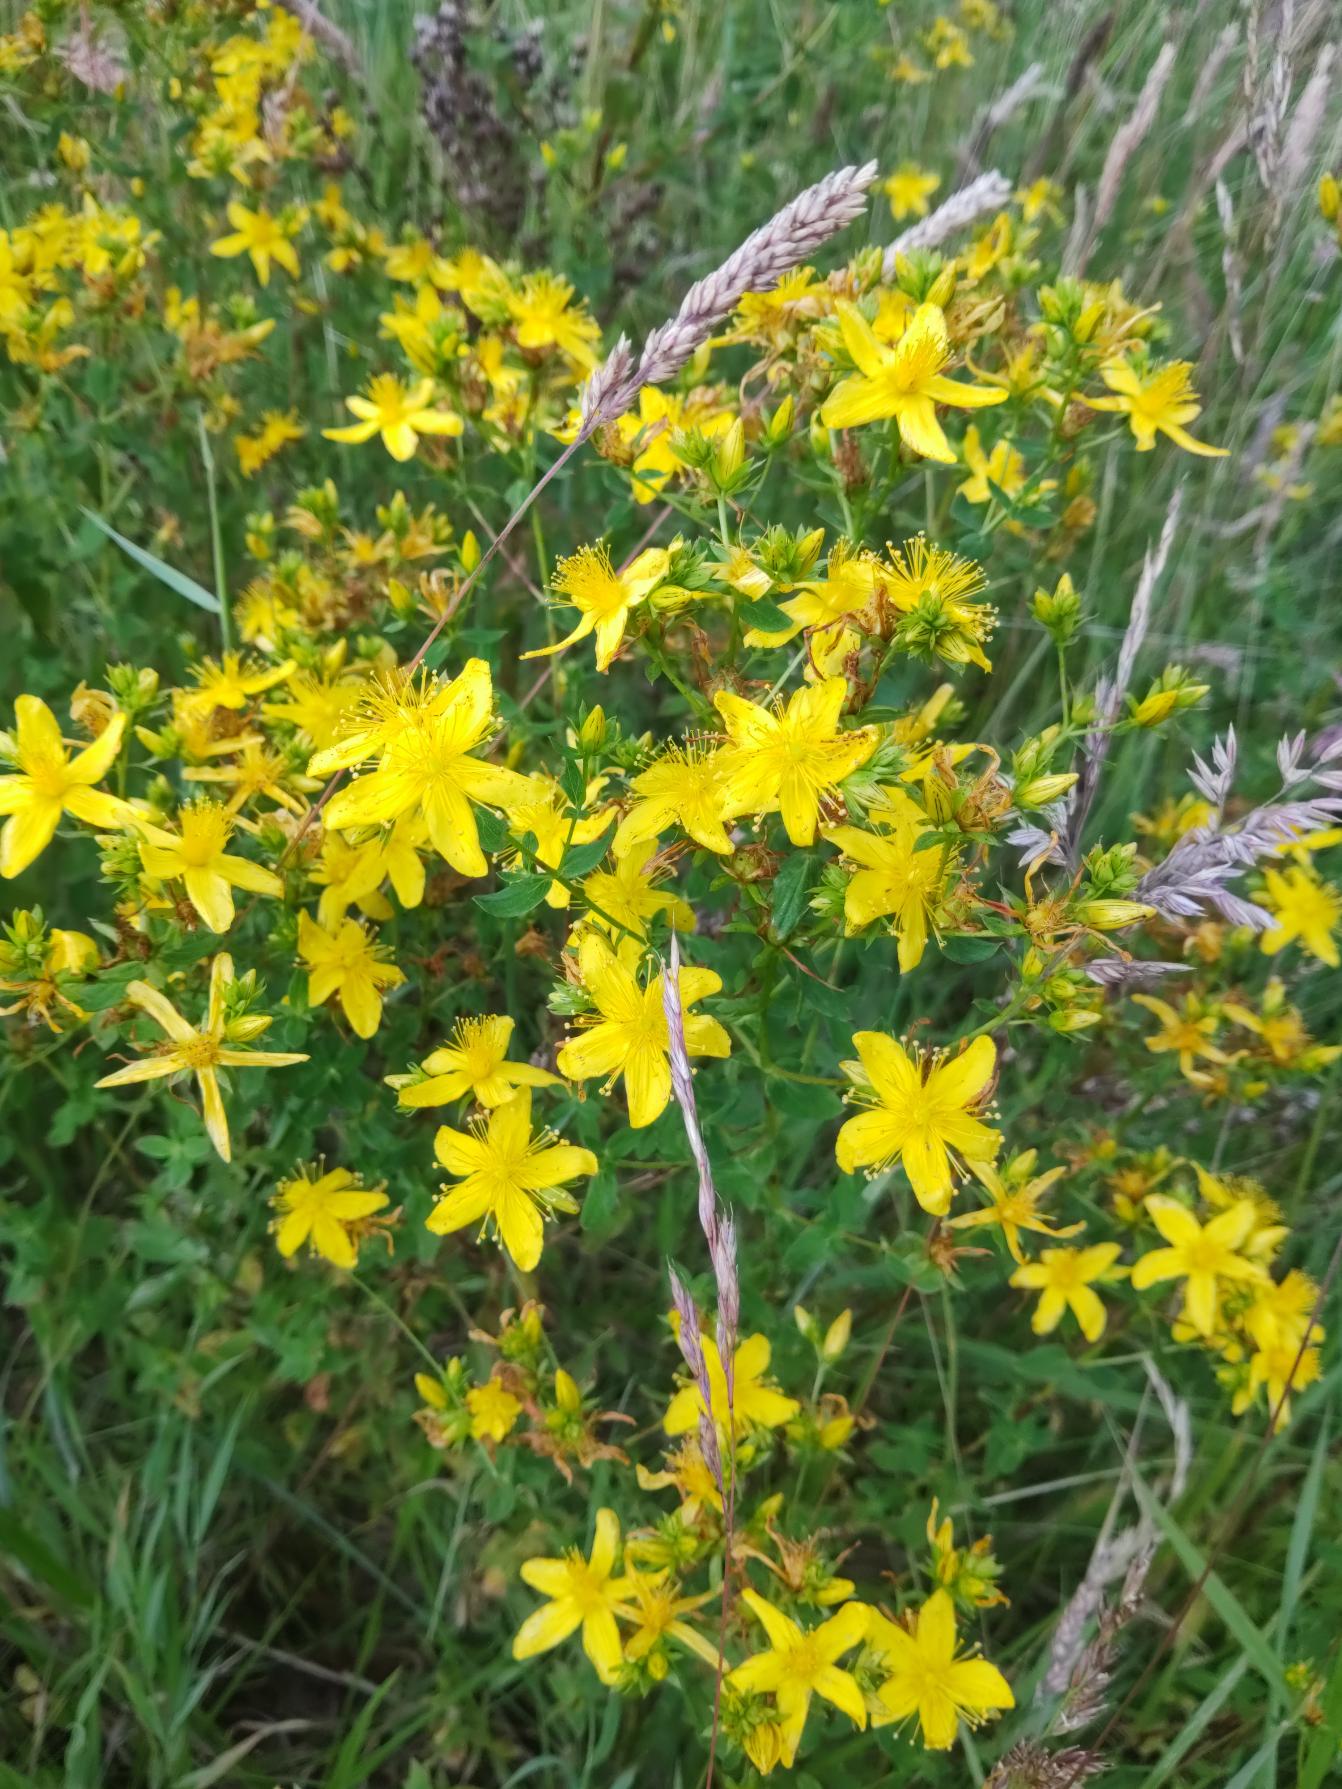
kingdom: Plantae
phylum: Tracheophyta
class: Magnoliopsida
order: Malpighiales
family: Hypericaceae
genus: Hypericum
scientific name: Hypericum maculatum
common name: Kantet perikon
